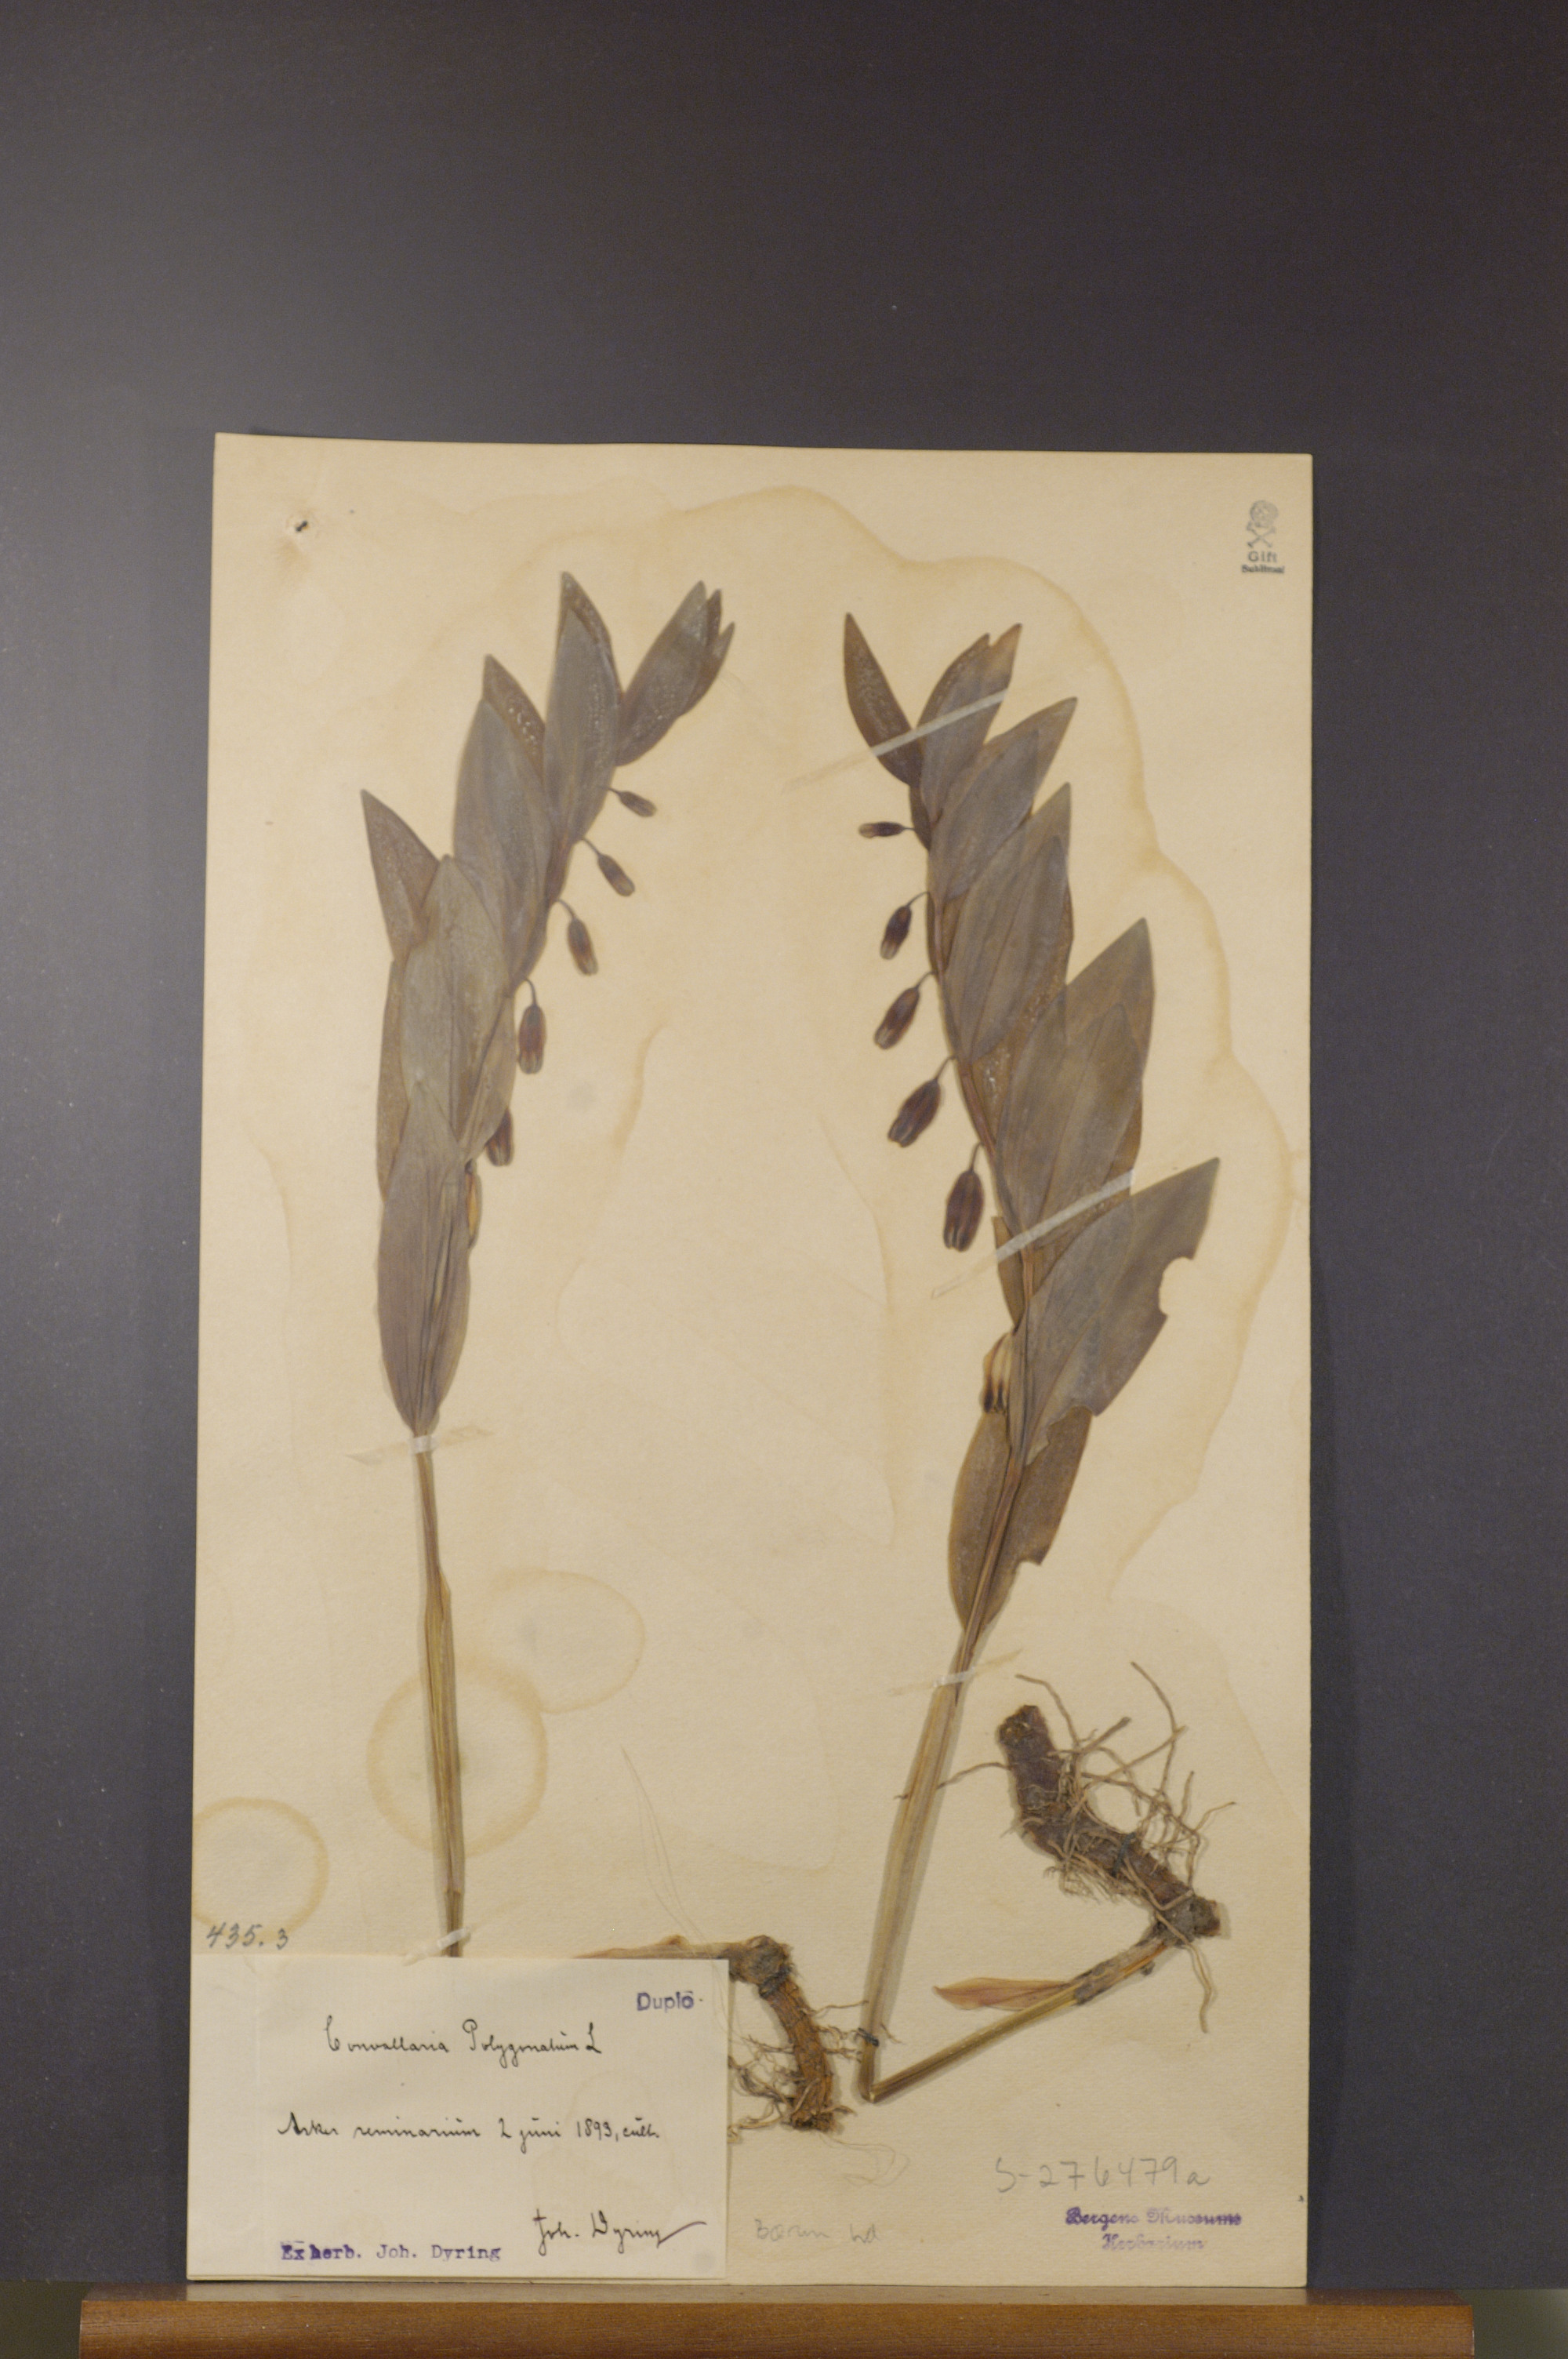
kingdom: Plantae
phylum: Tracheophyta
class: Liliopsida
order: Asparagales
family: Asparagaceae
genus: Polygonatum
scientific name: Polygonatum odoratum
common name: Angular solomon's-seal
